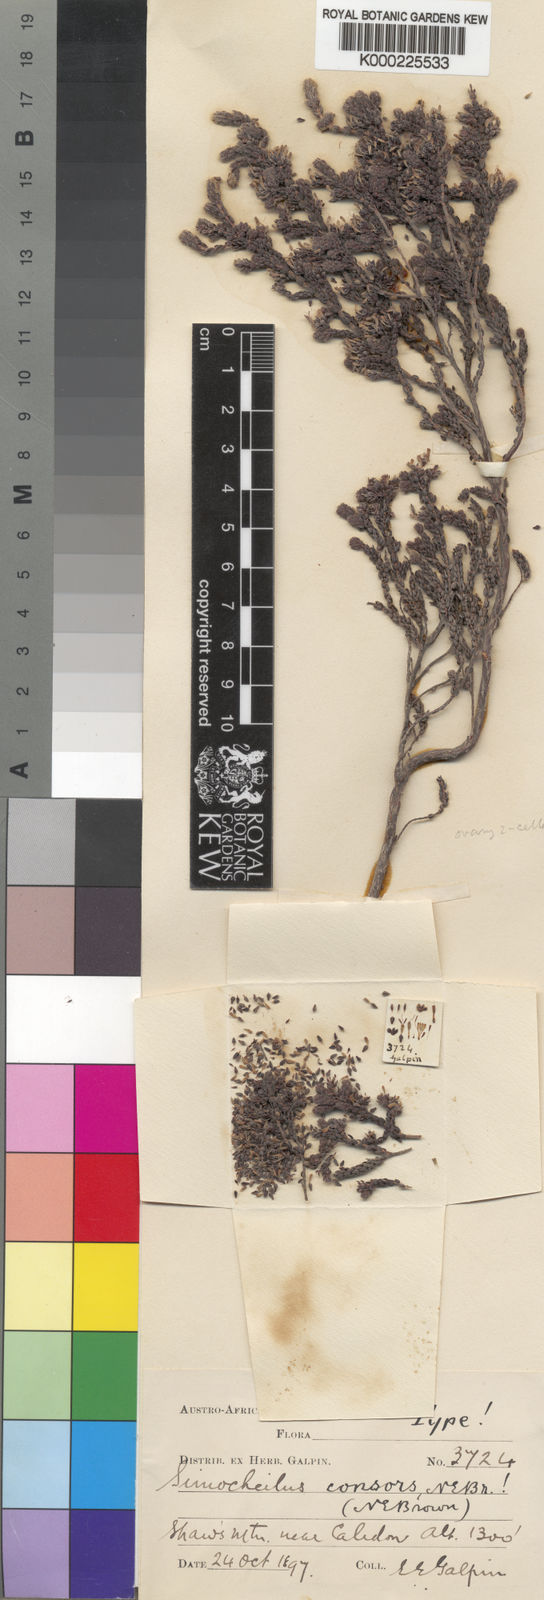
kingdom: Plantae
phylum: Tracheophyta
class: Magnoliopsida
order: Ericales
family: Ericaceae
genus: Erica
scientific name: Erica globiceps
